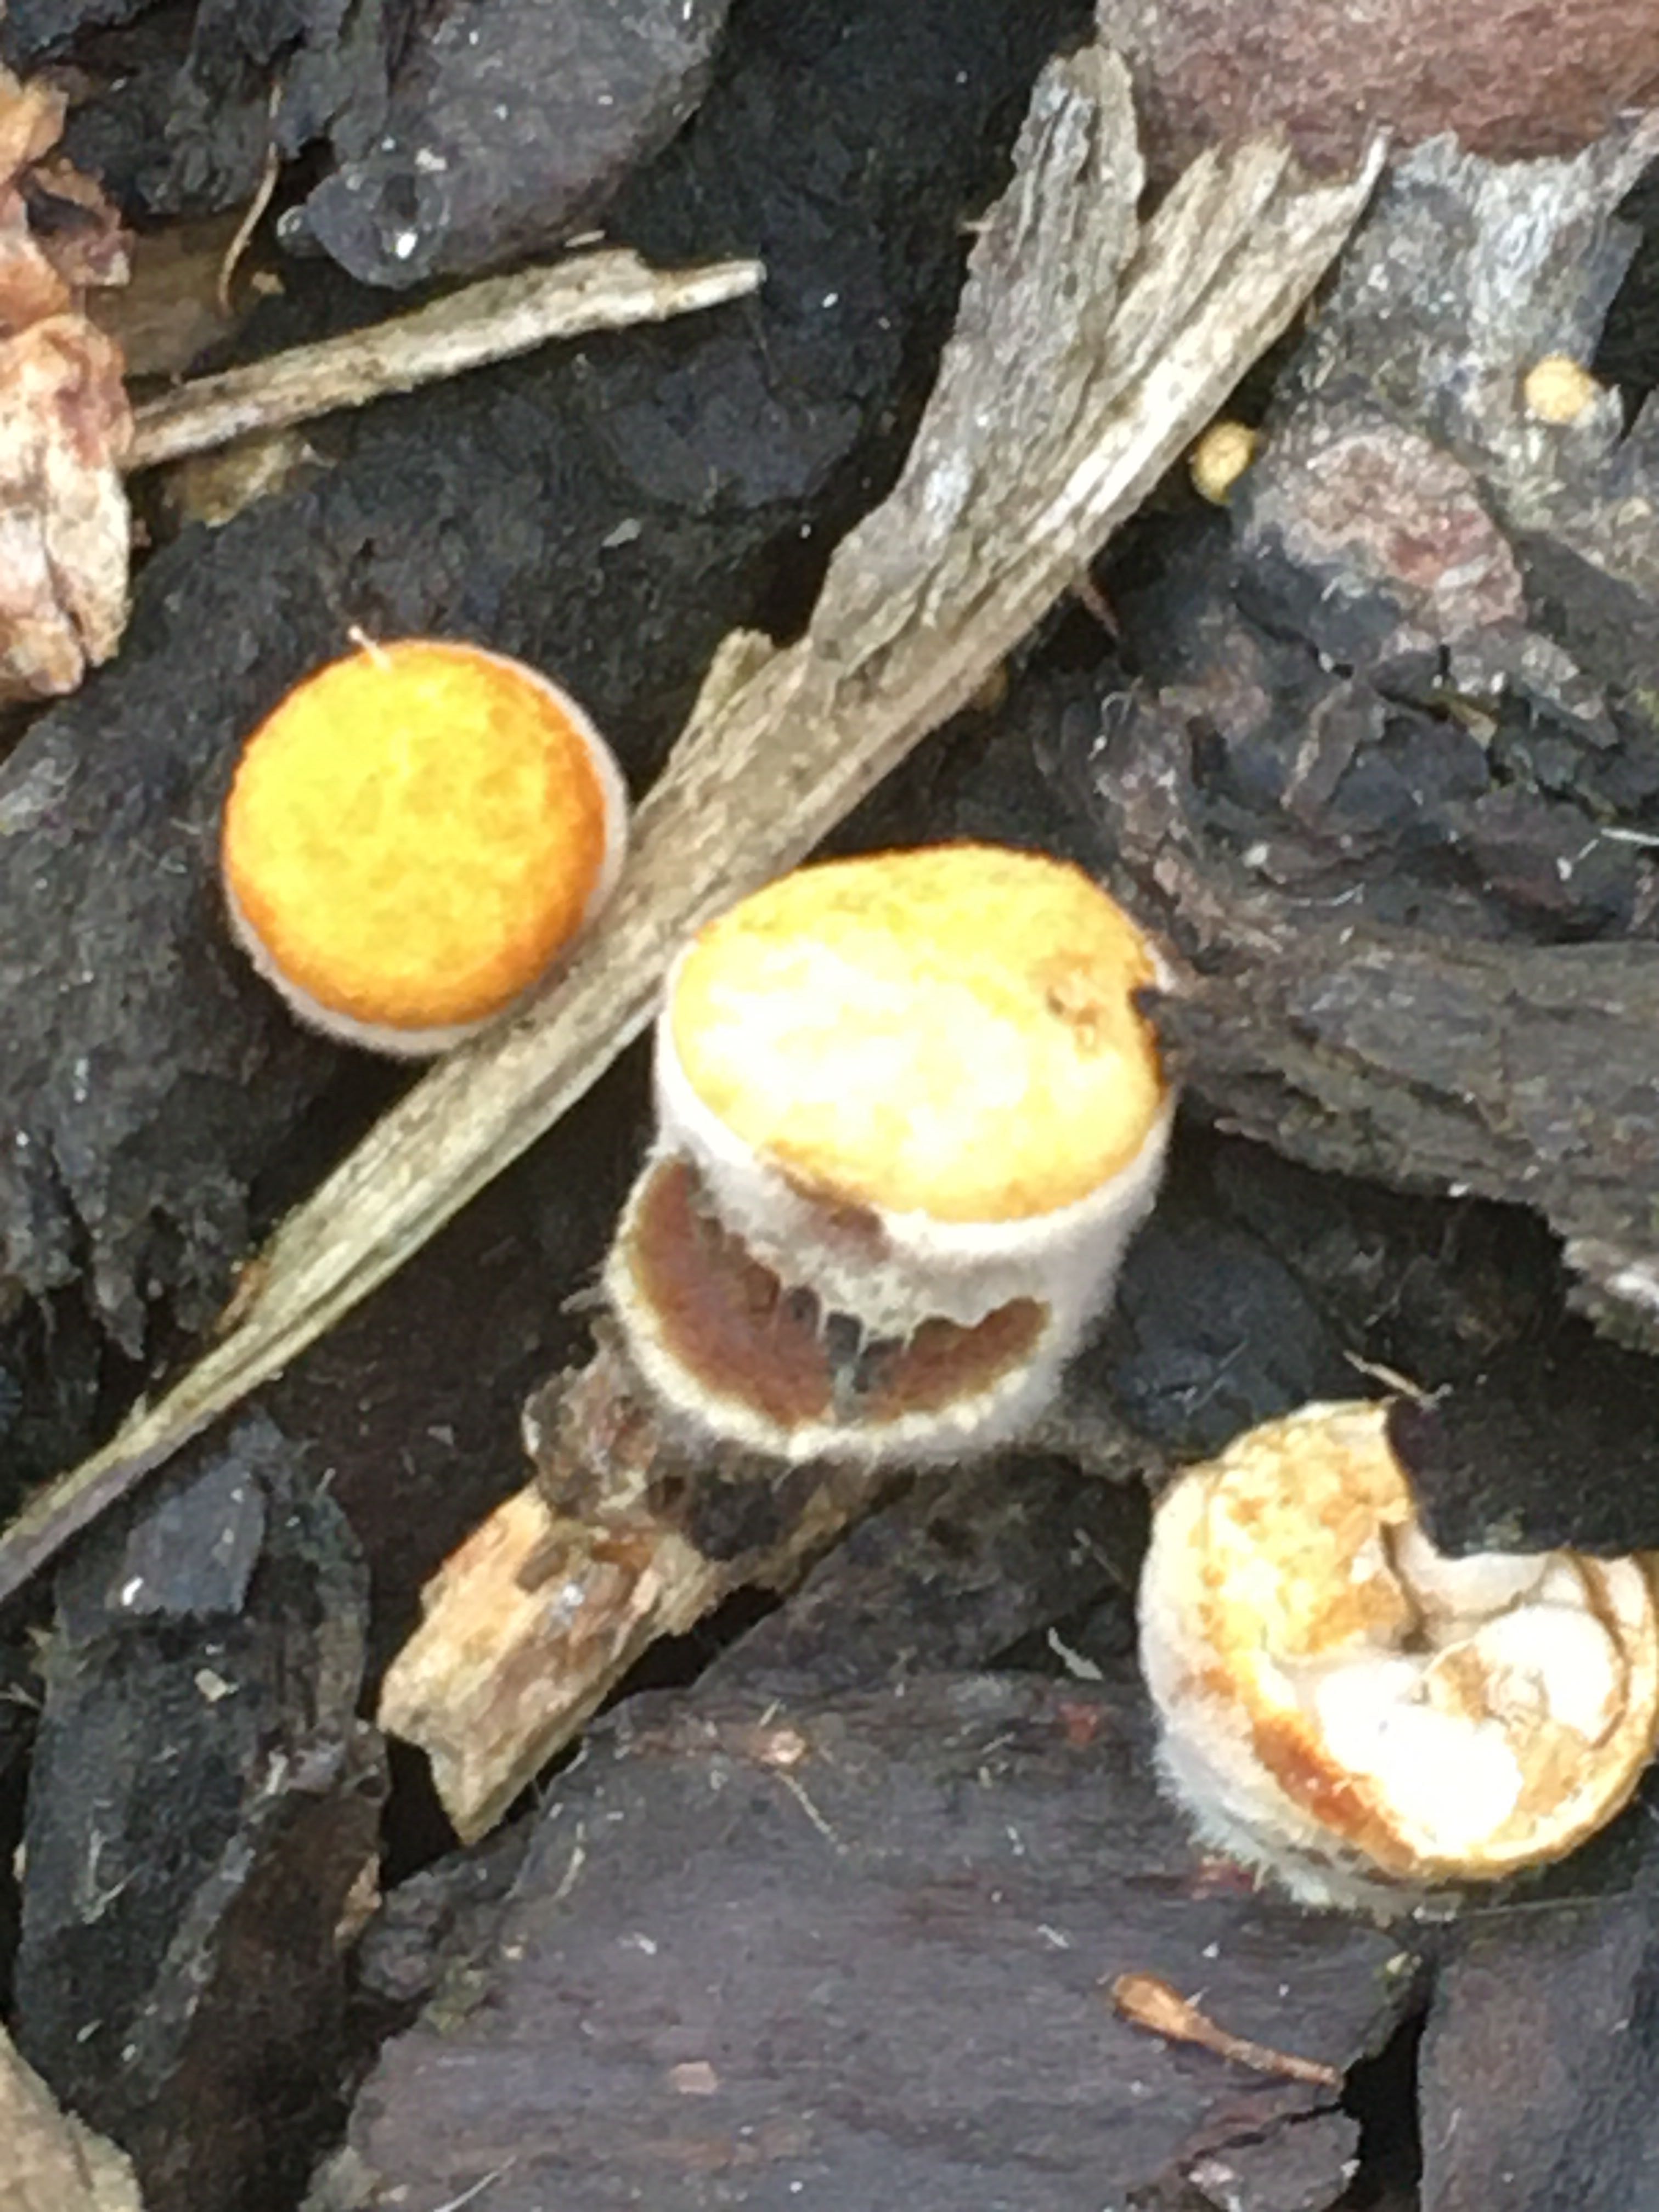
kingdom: Fungi
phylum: Basidiomycota
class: Agaricomycetes
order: Agaricales
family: Nidulariaceae
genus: Crucibulum
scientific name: Crucibulum crucibuliforme
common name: krukkesvamp
